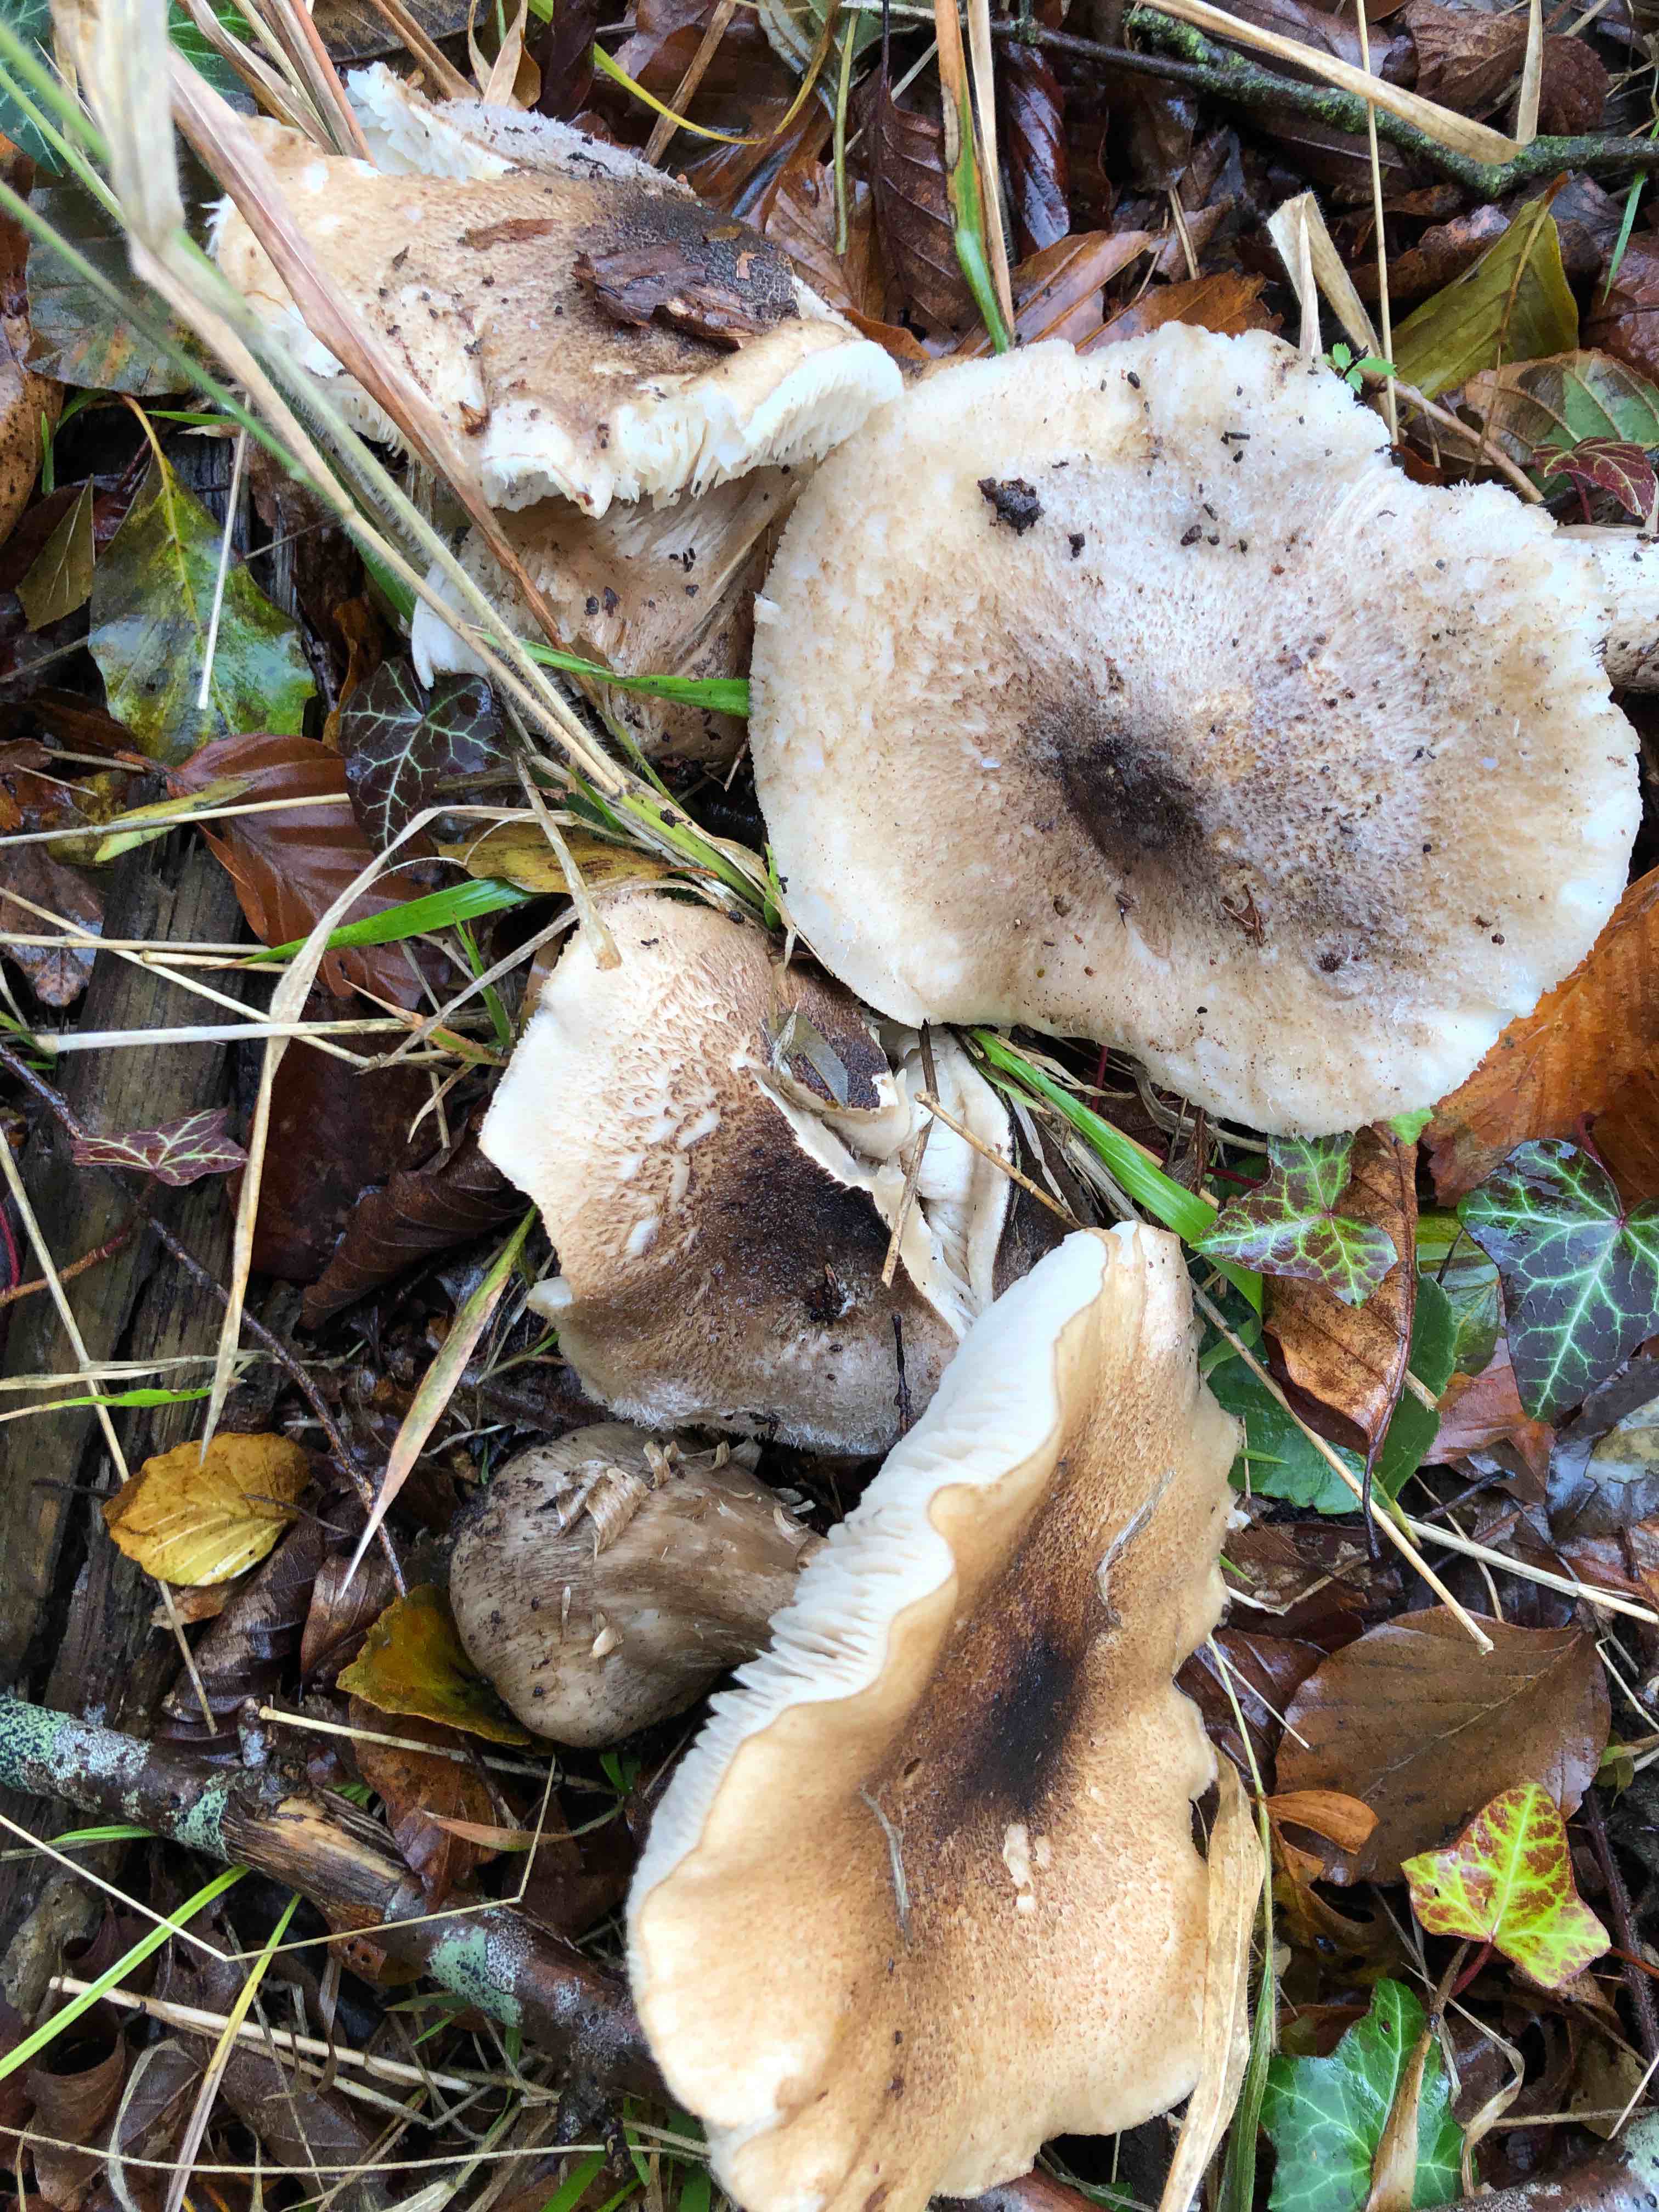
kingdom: Fungi
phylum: Basidiomycota
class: Agaricomycetes
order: Agaricales
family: Tricholomataceae
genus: Tricholoma
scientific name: Tricholoma
